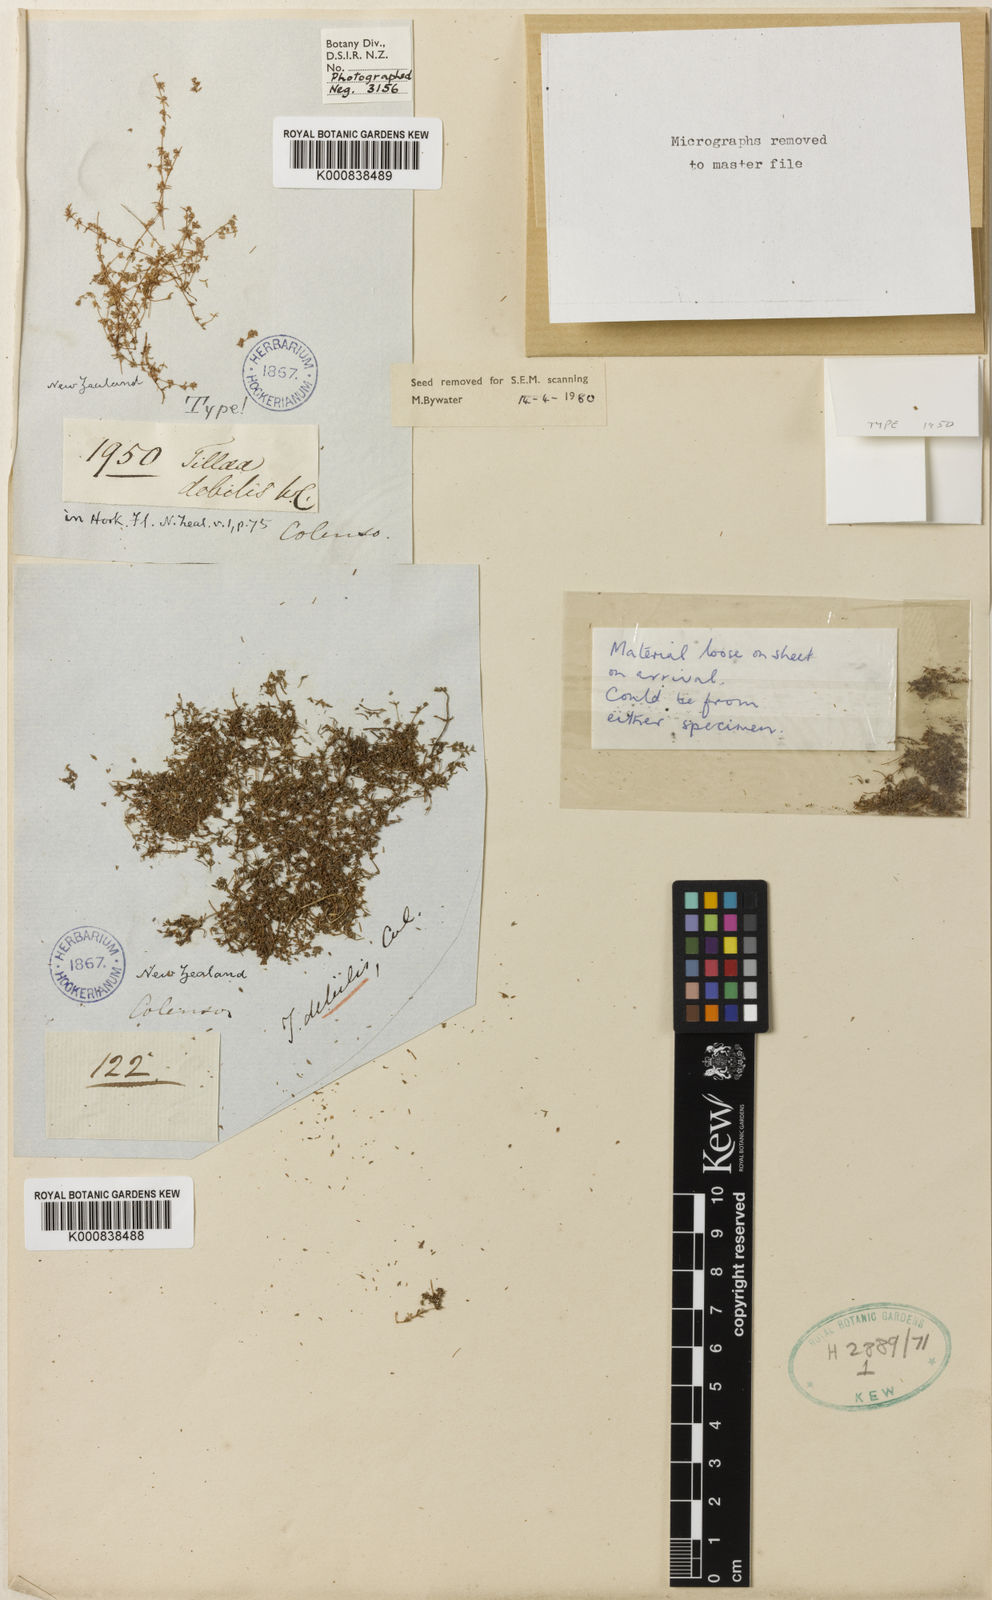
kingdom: Plantae
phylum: Tracheophyta
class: Magnoliopsida
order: Saxifragales
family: Crassulaceae
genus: Crassula
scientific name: Crassula thunbergiana
